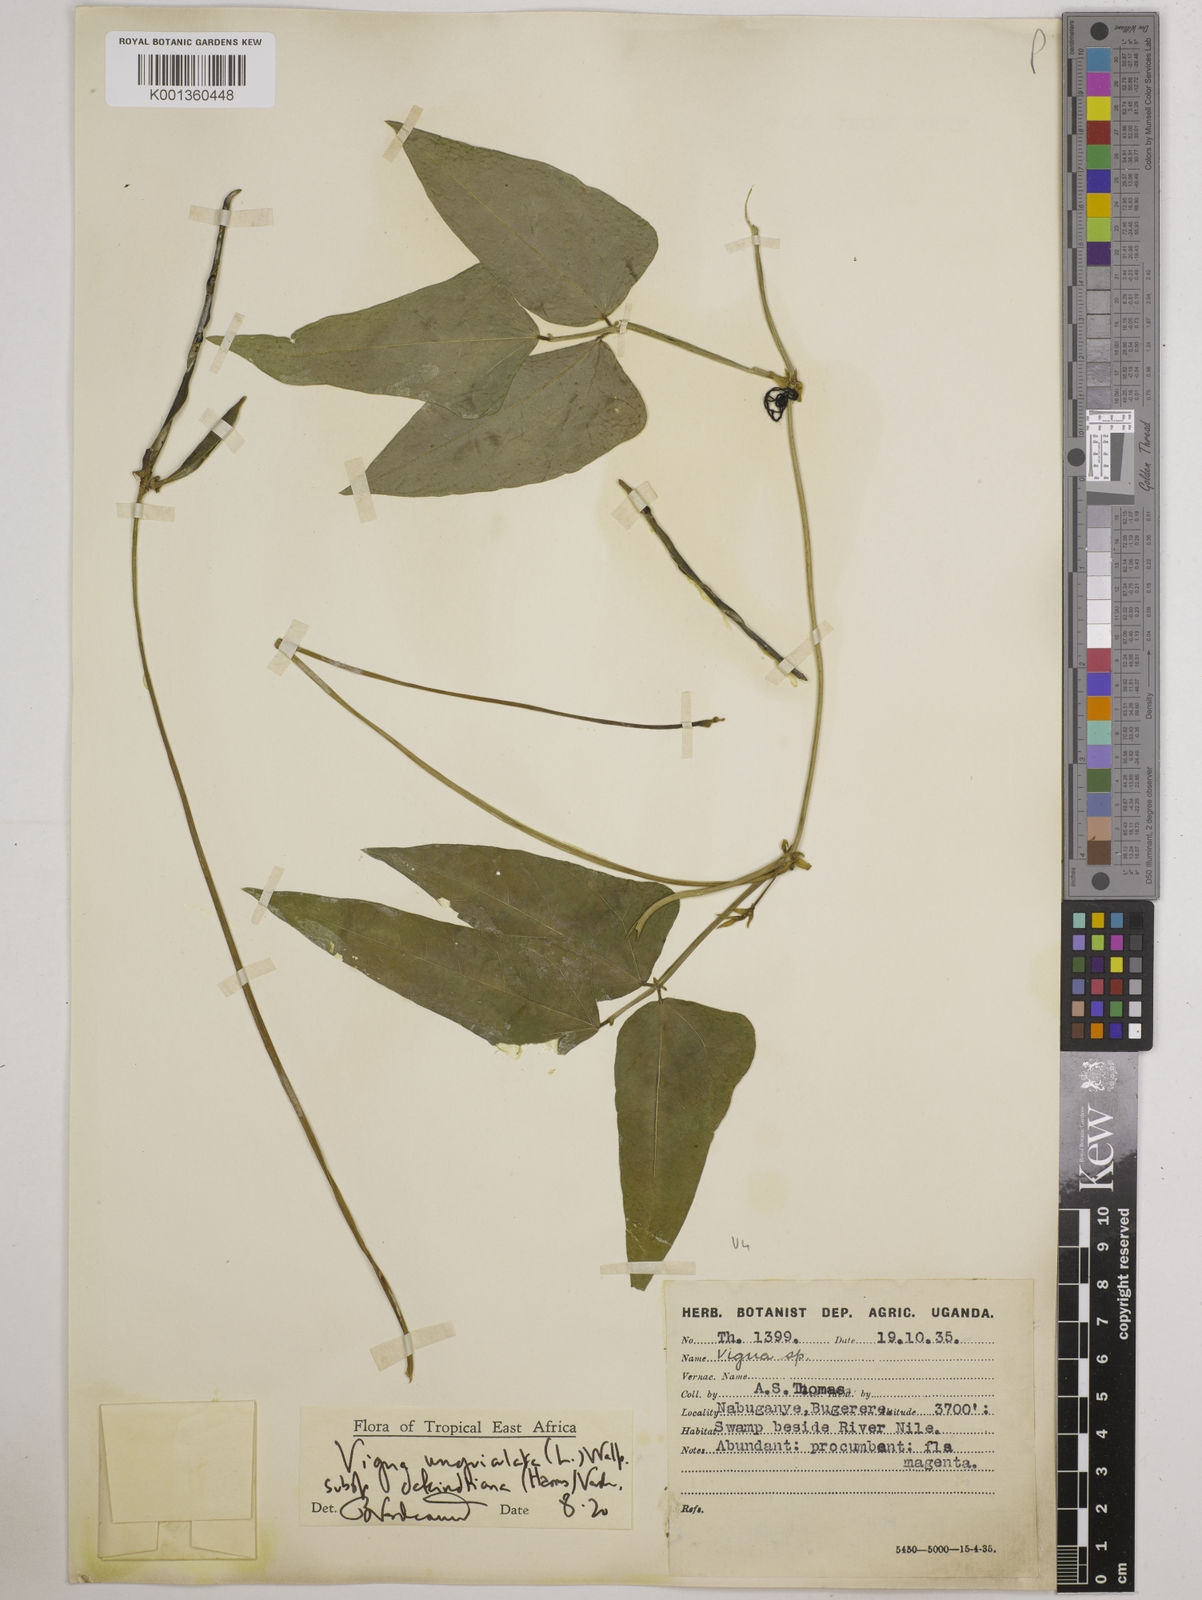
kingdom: Plantae
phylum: Tracheophyta
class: Magnoliopsida
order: Fabales
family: Fabaceae
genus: Vigna
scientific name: Vigna unguiculata
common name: Cowpea
